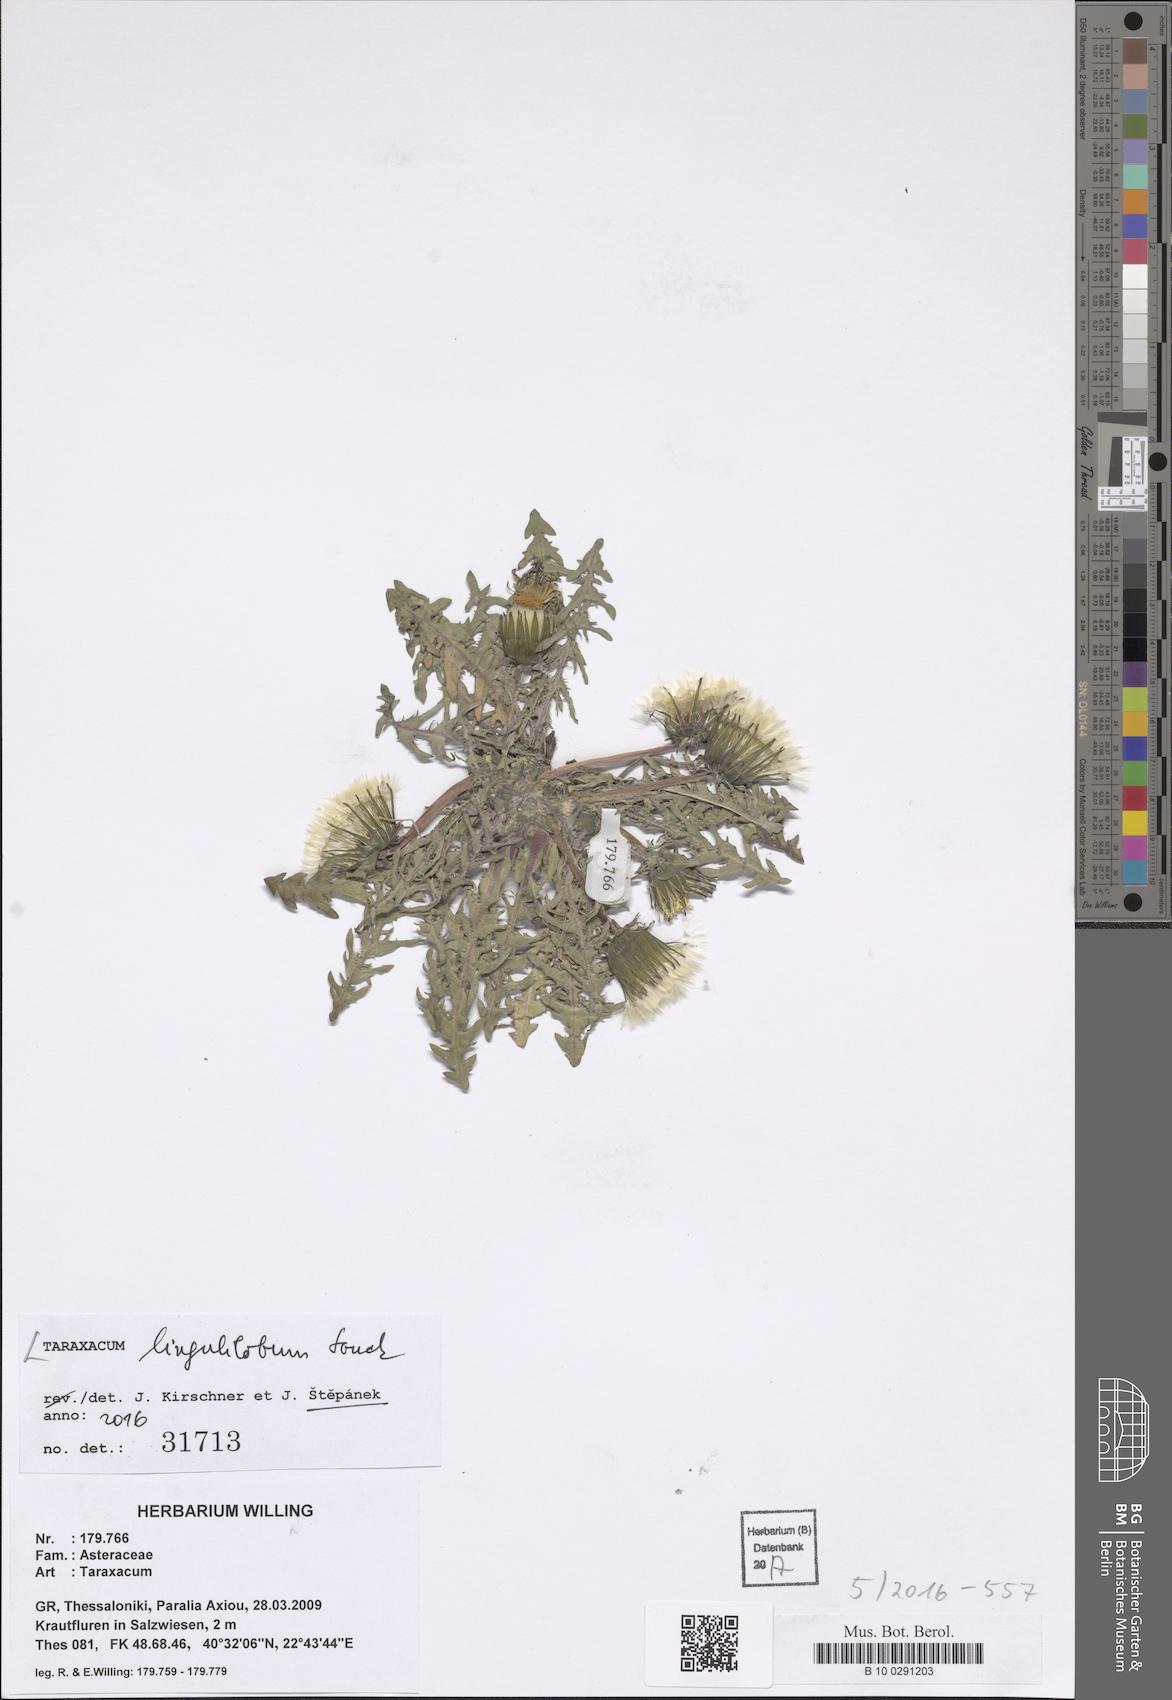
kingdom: Plantae
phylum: Tracheophyta
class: Magnoliopsida
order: Asterales
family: Asteraceae
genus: Taraxacum
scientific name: Taraxacum lingulilobum
